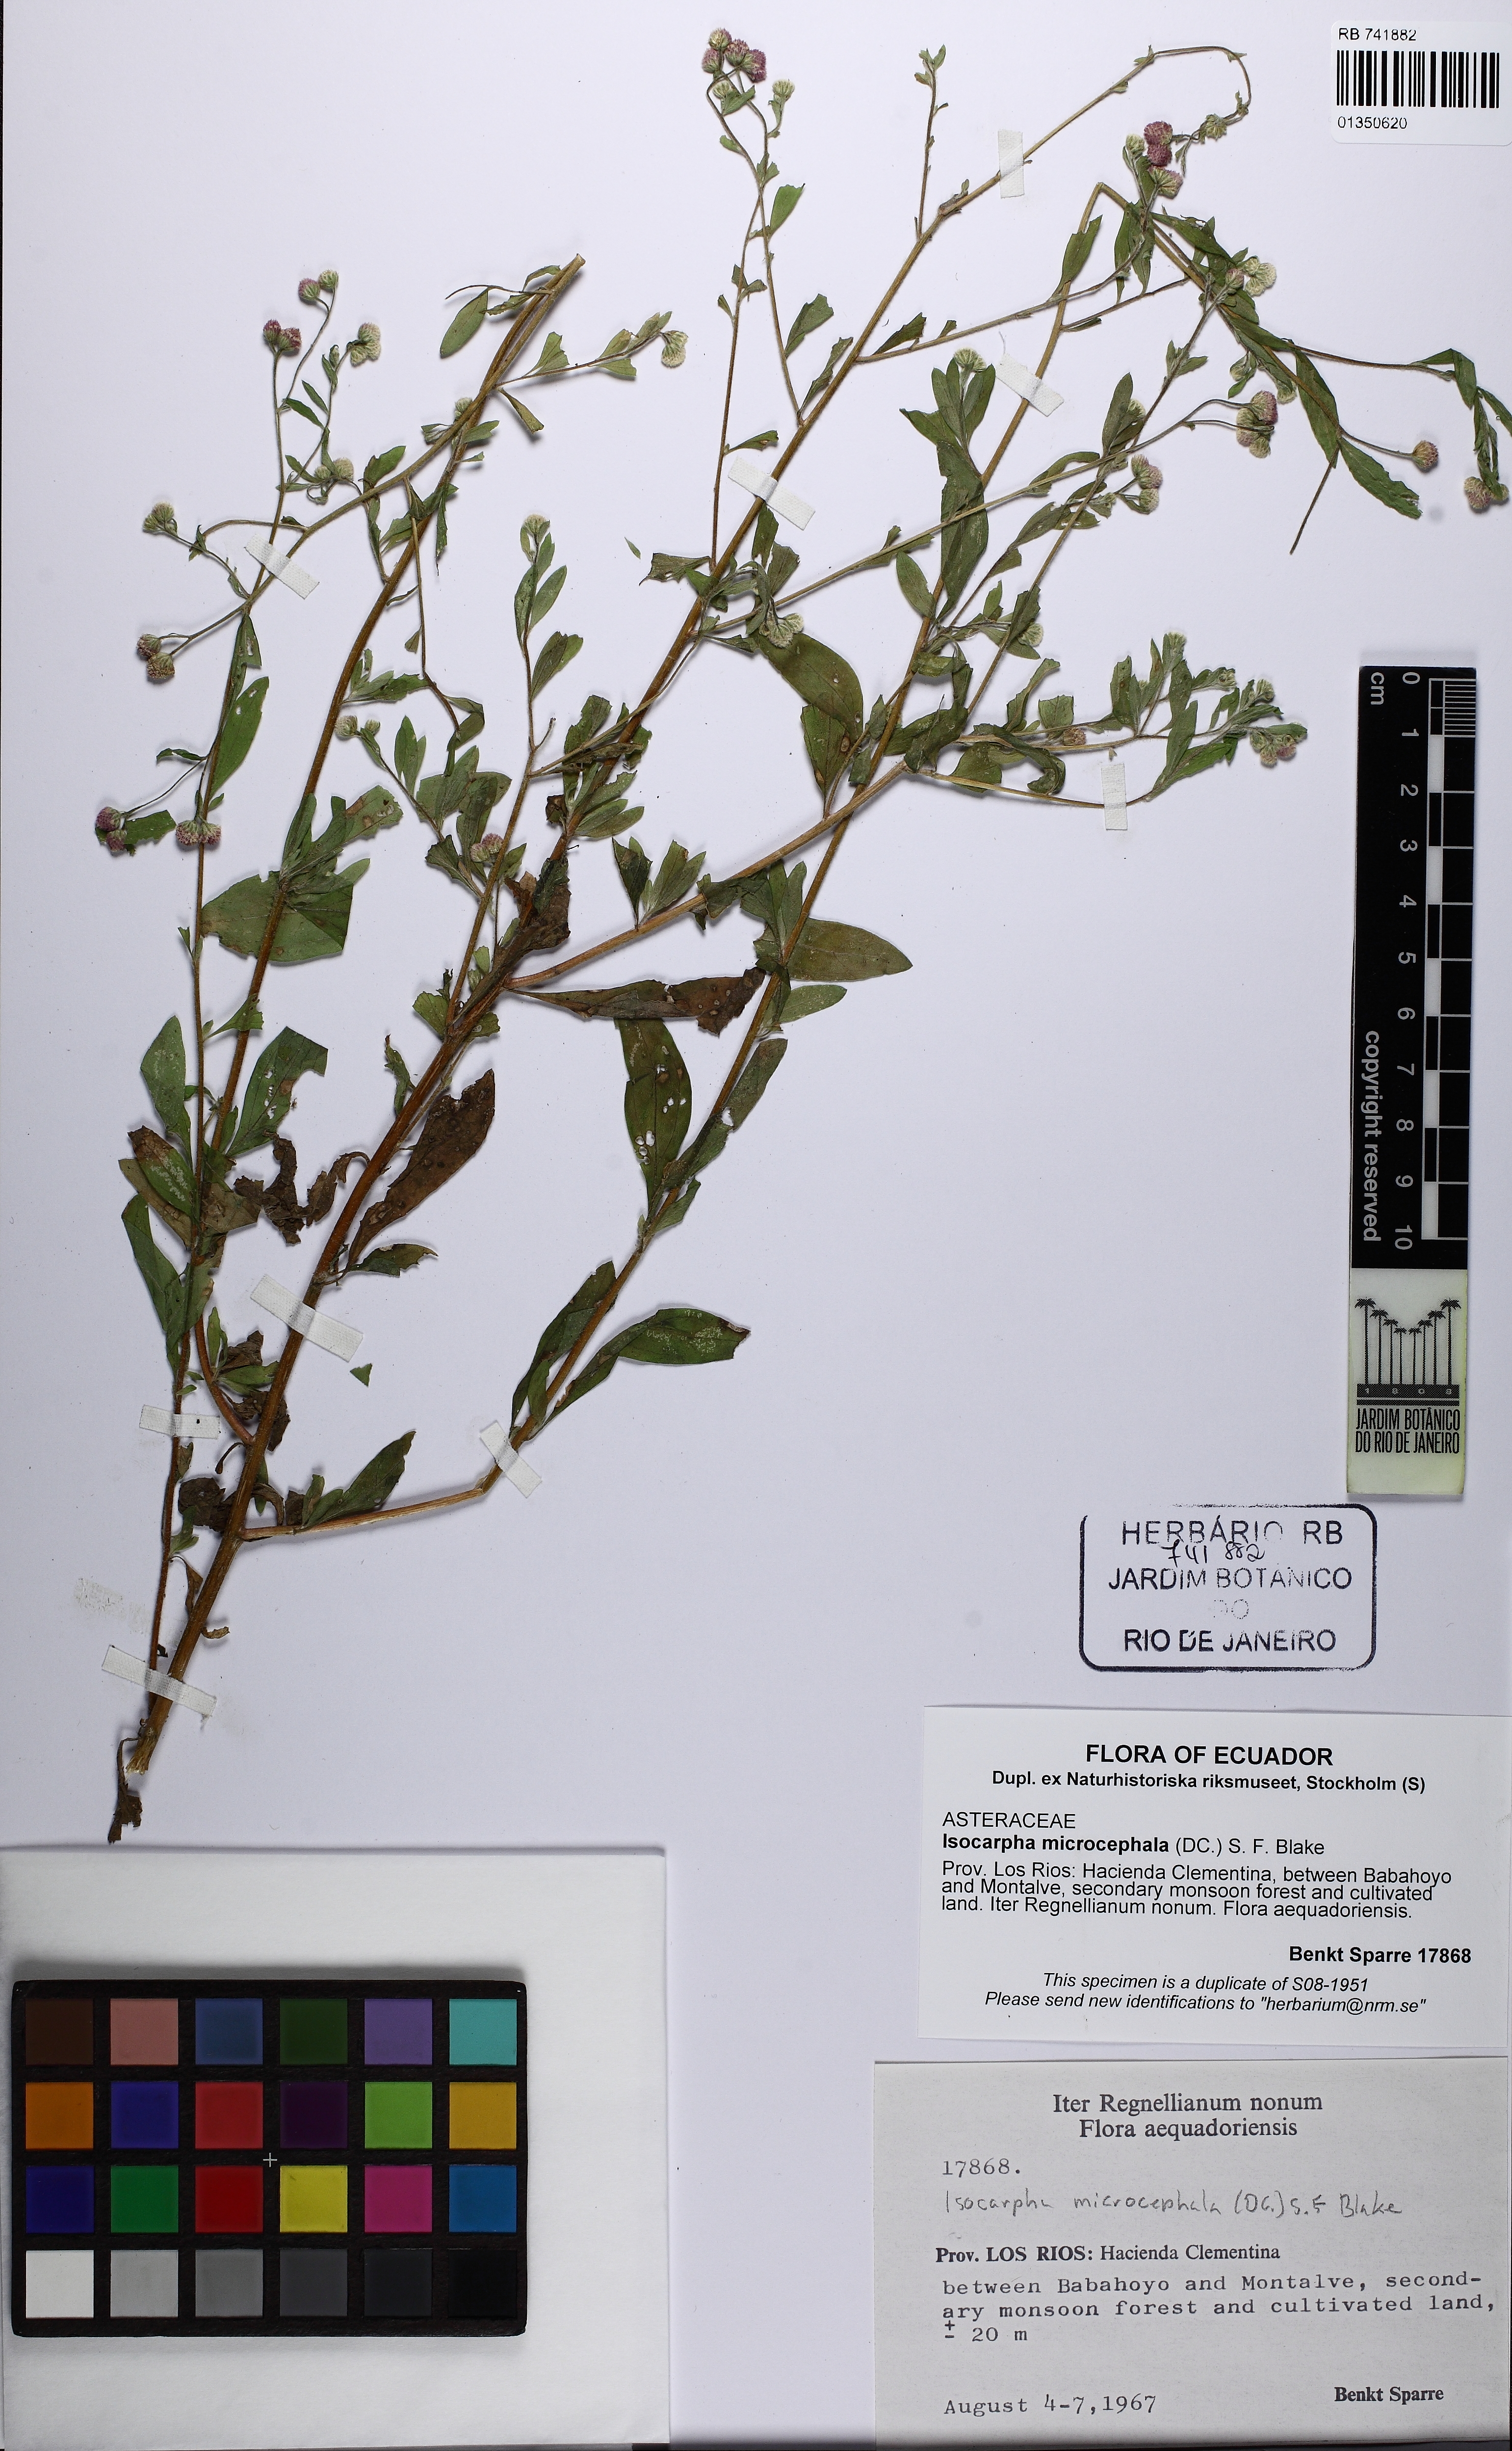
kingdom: Plantae
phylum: Tracheophyta
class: Magnoliopsida
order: Asterales
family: Asteraceae
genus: Isocarpha
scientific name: Isocarpha microcephala
